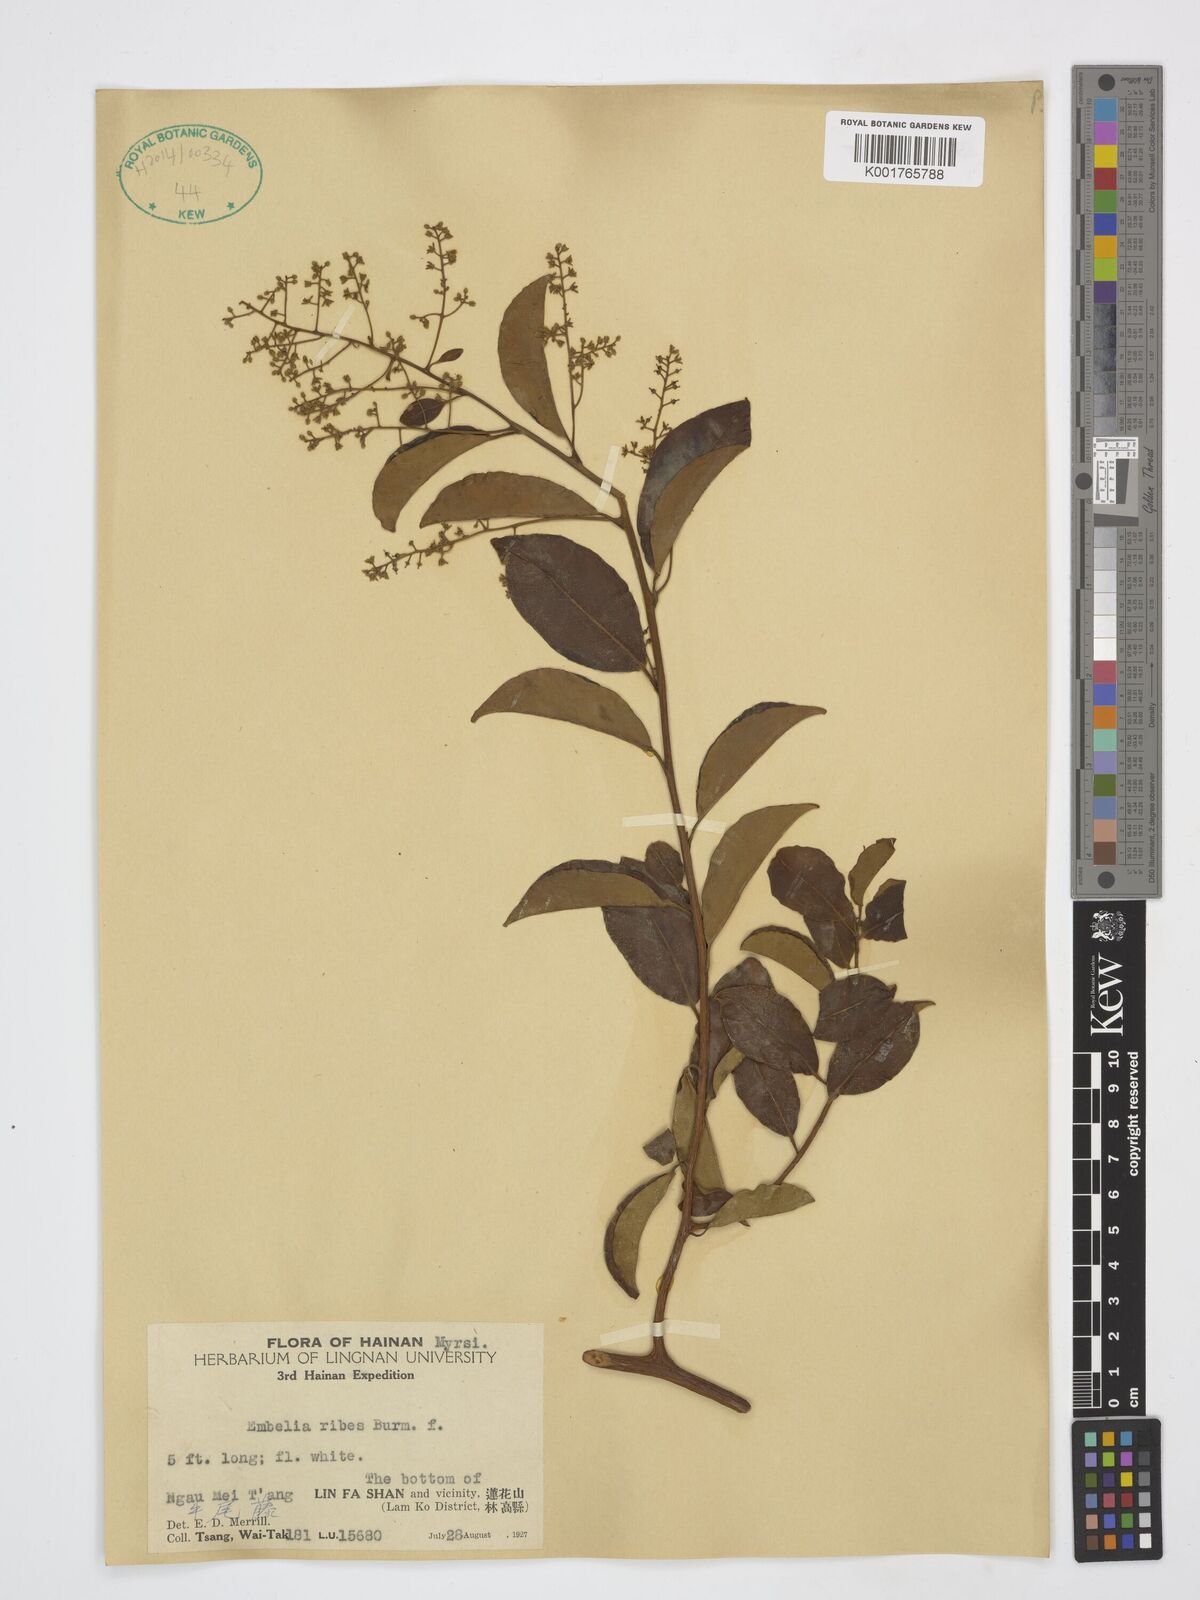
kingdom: Plantae
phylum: Tracheophyta
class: Magnoliopsida
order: Ericales
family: Primulaceae
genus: Embelia
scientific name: Embelia ribes
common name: Vidanga
